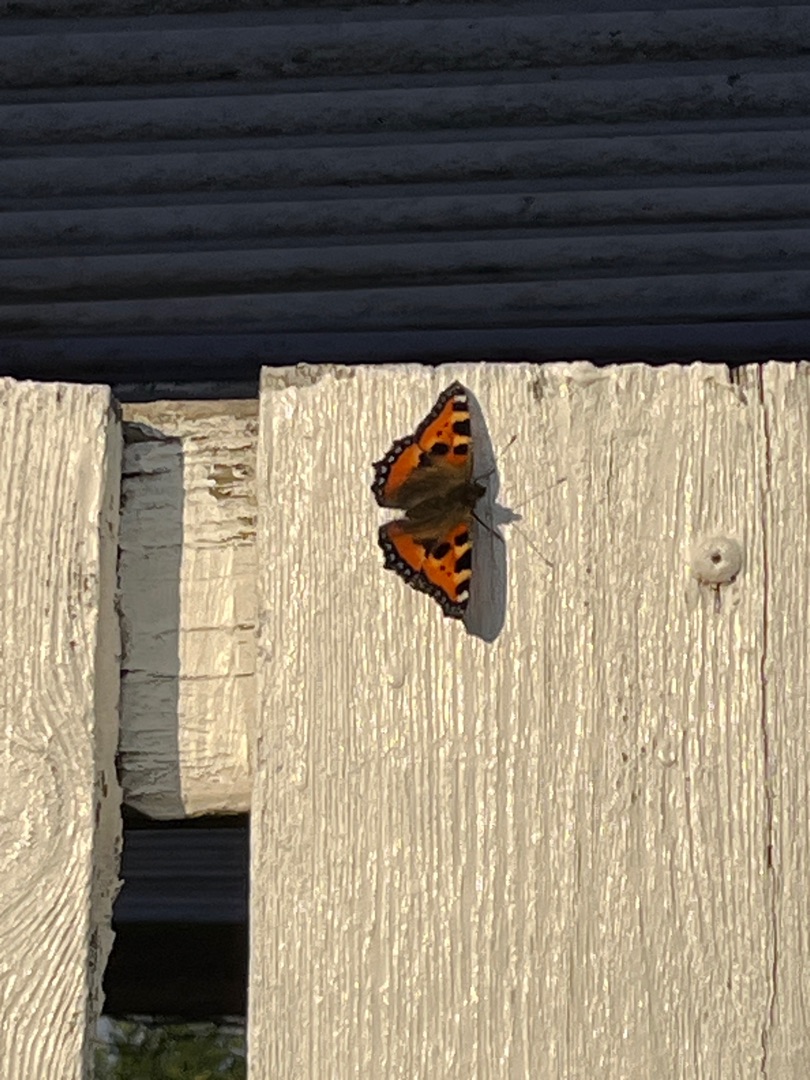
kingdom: Animalia
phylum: Arthropoda
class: Insecta
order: Lepidoptera
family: Nymphalidae
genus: Aglais
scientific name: Aglais urticae
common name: Nældens takvinge
